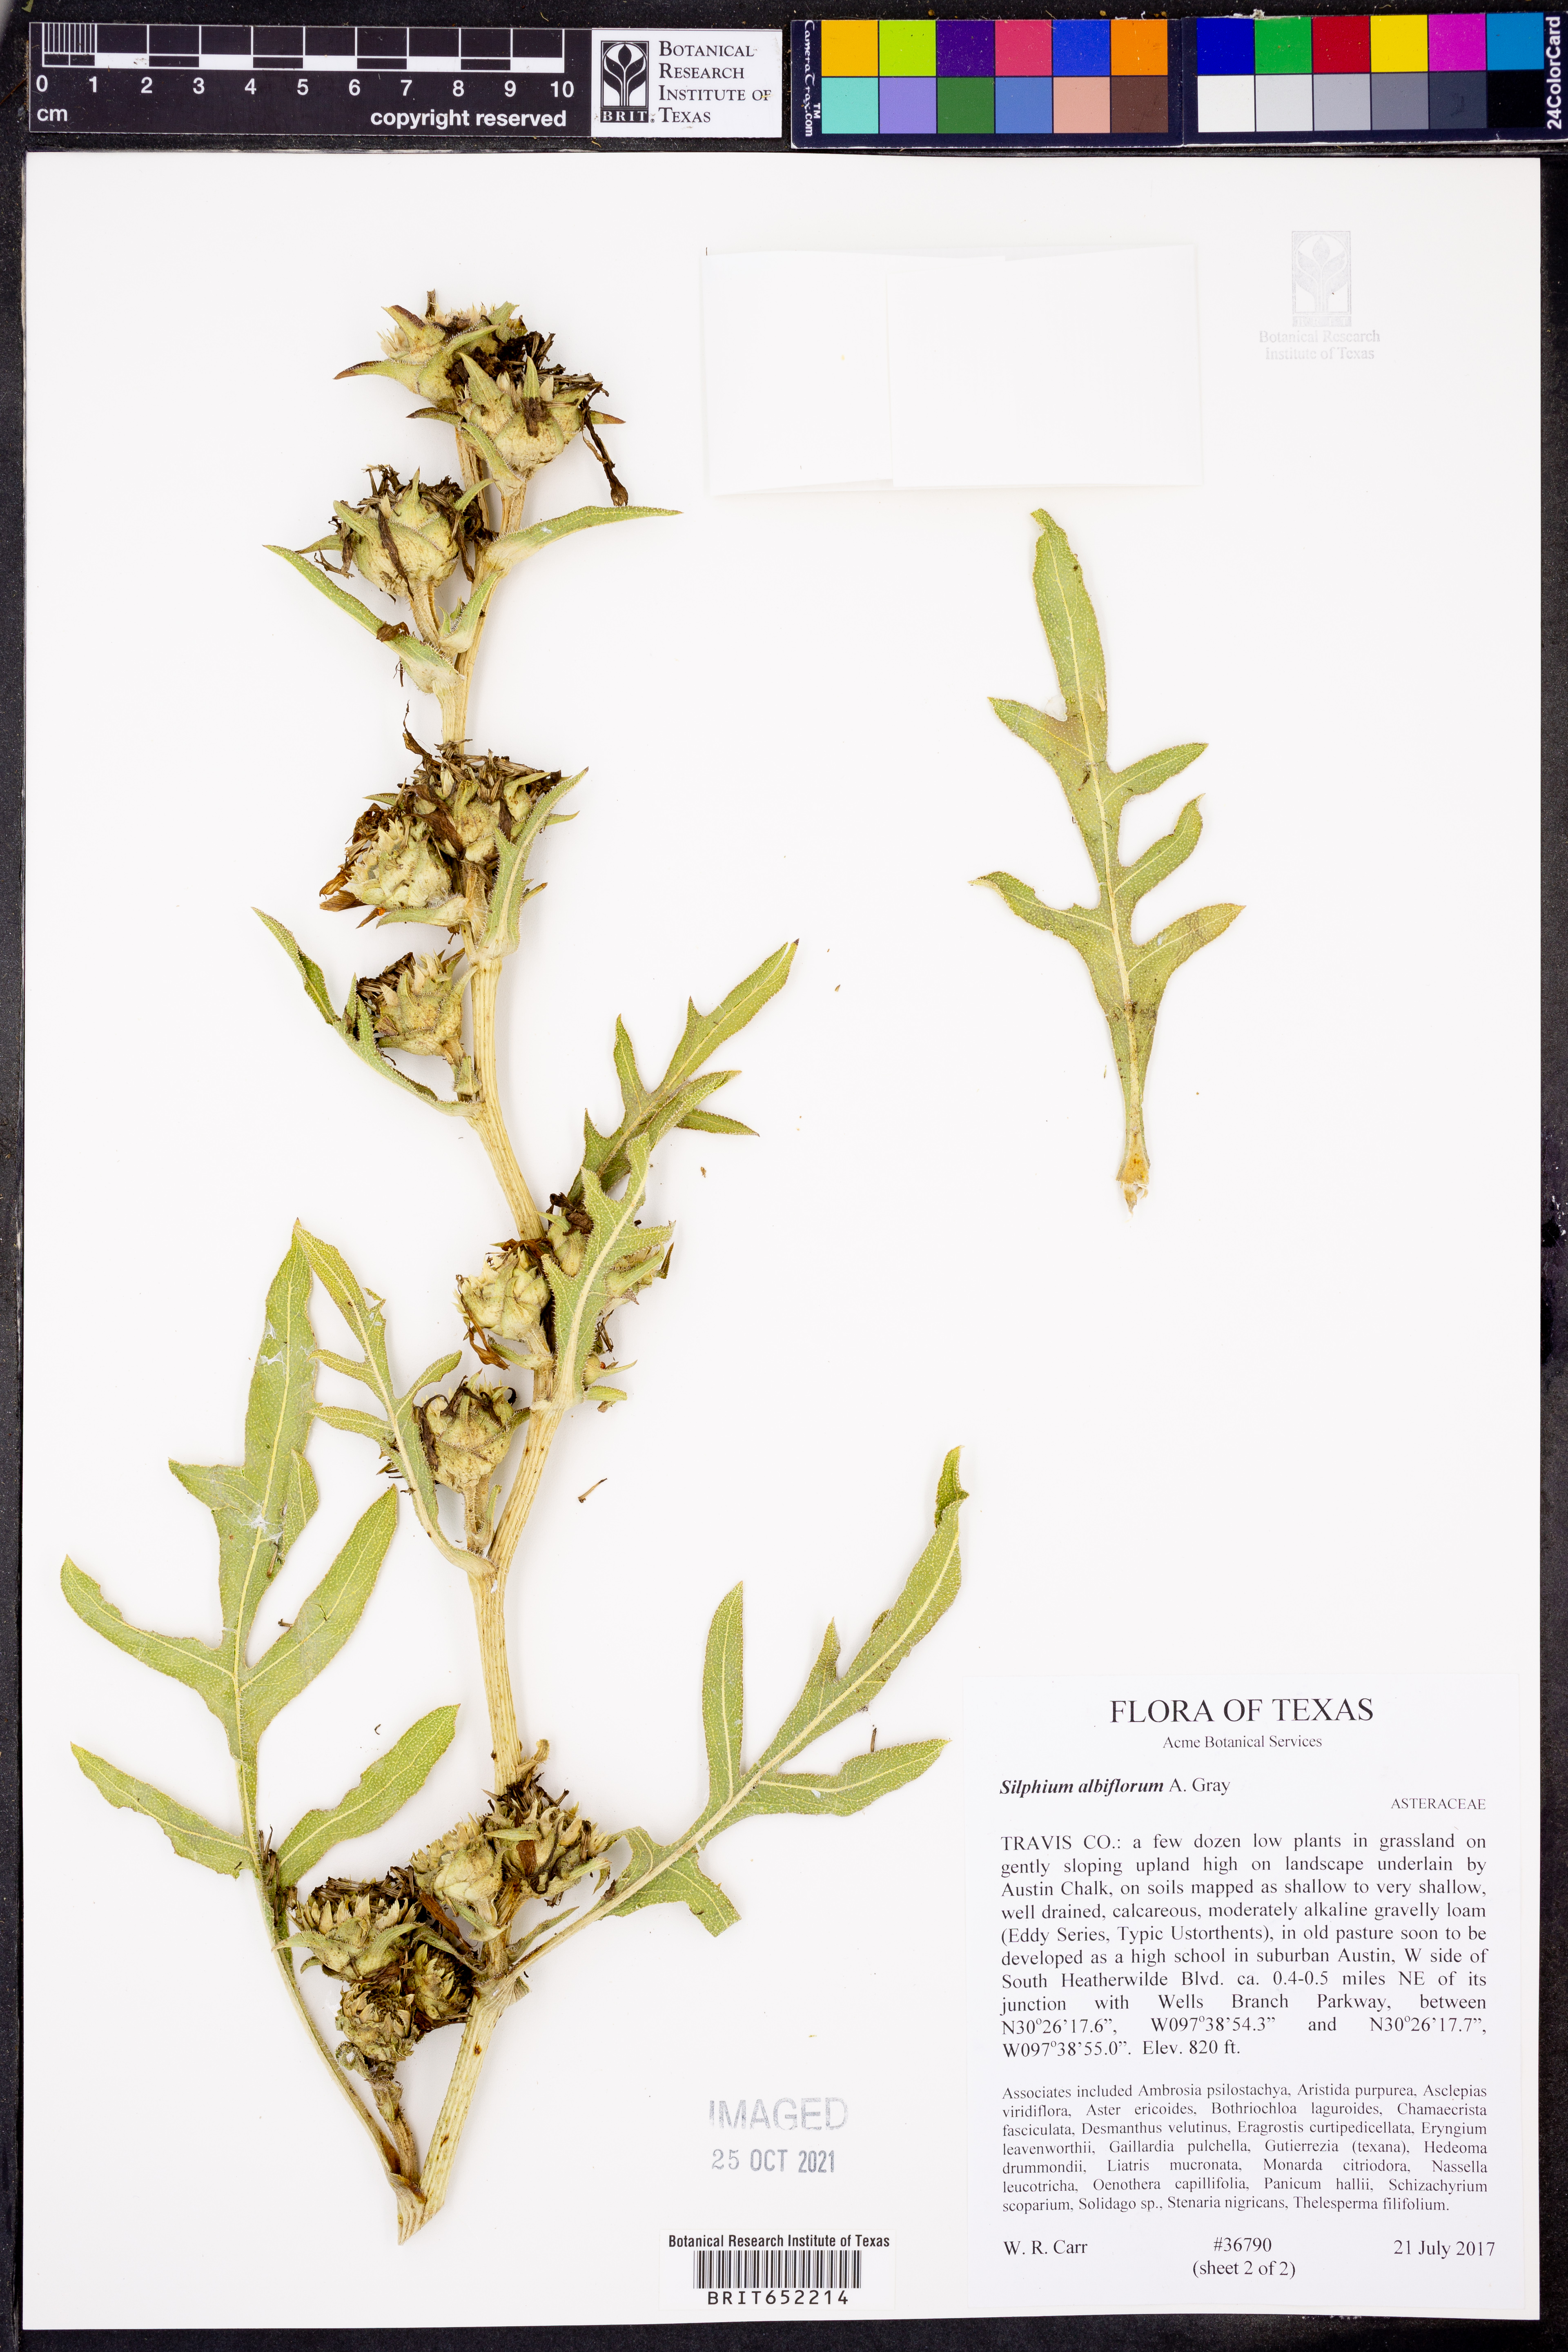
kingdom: Plantae
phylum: Tracheophyta
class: Magnoliopsida
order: Asterales
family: Asteraceae
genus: Silphium
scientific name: Silphium albiflorum
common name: White rosinweed
